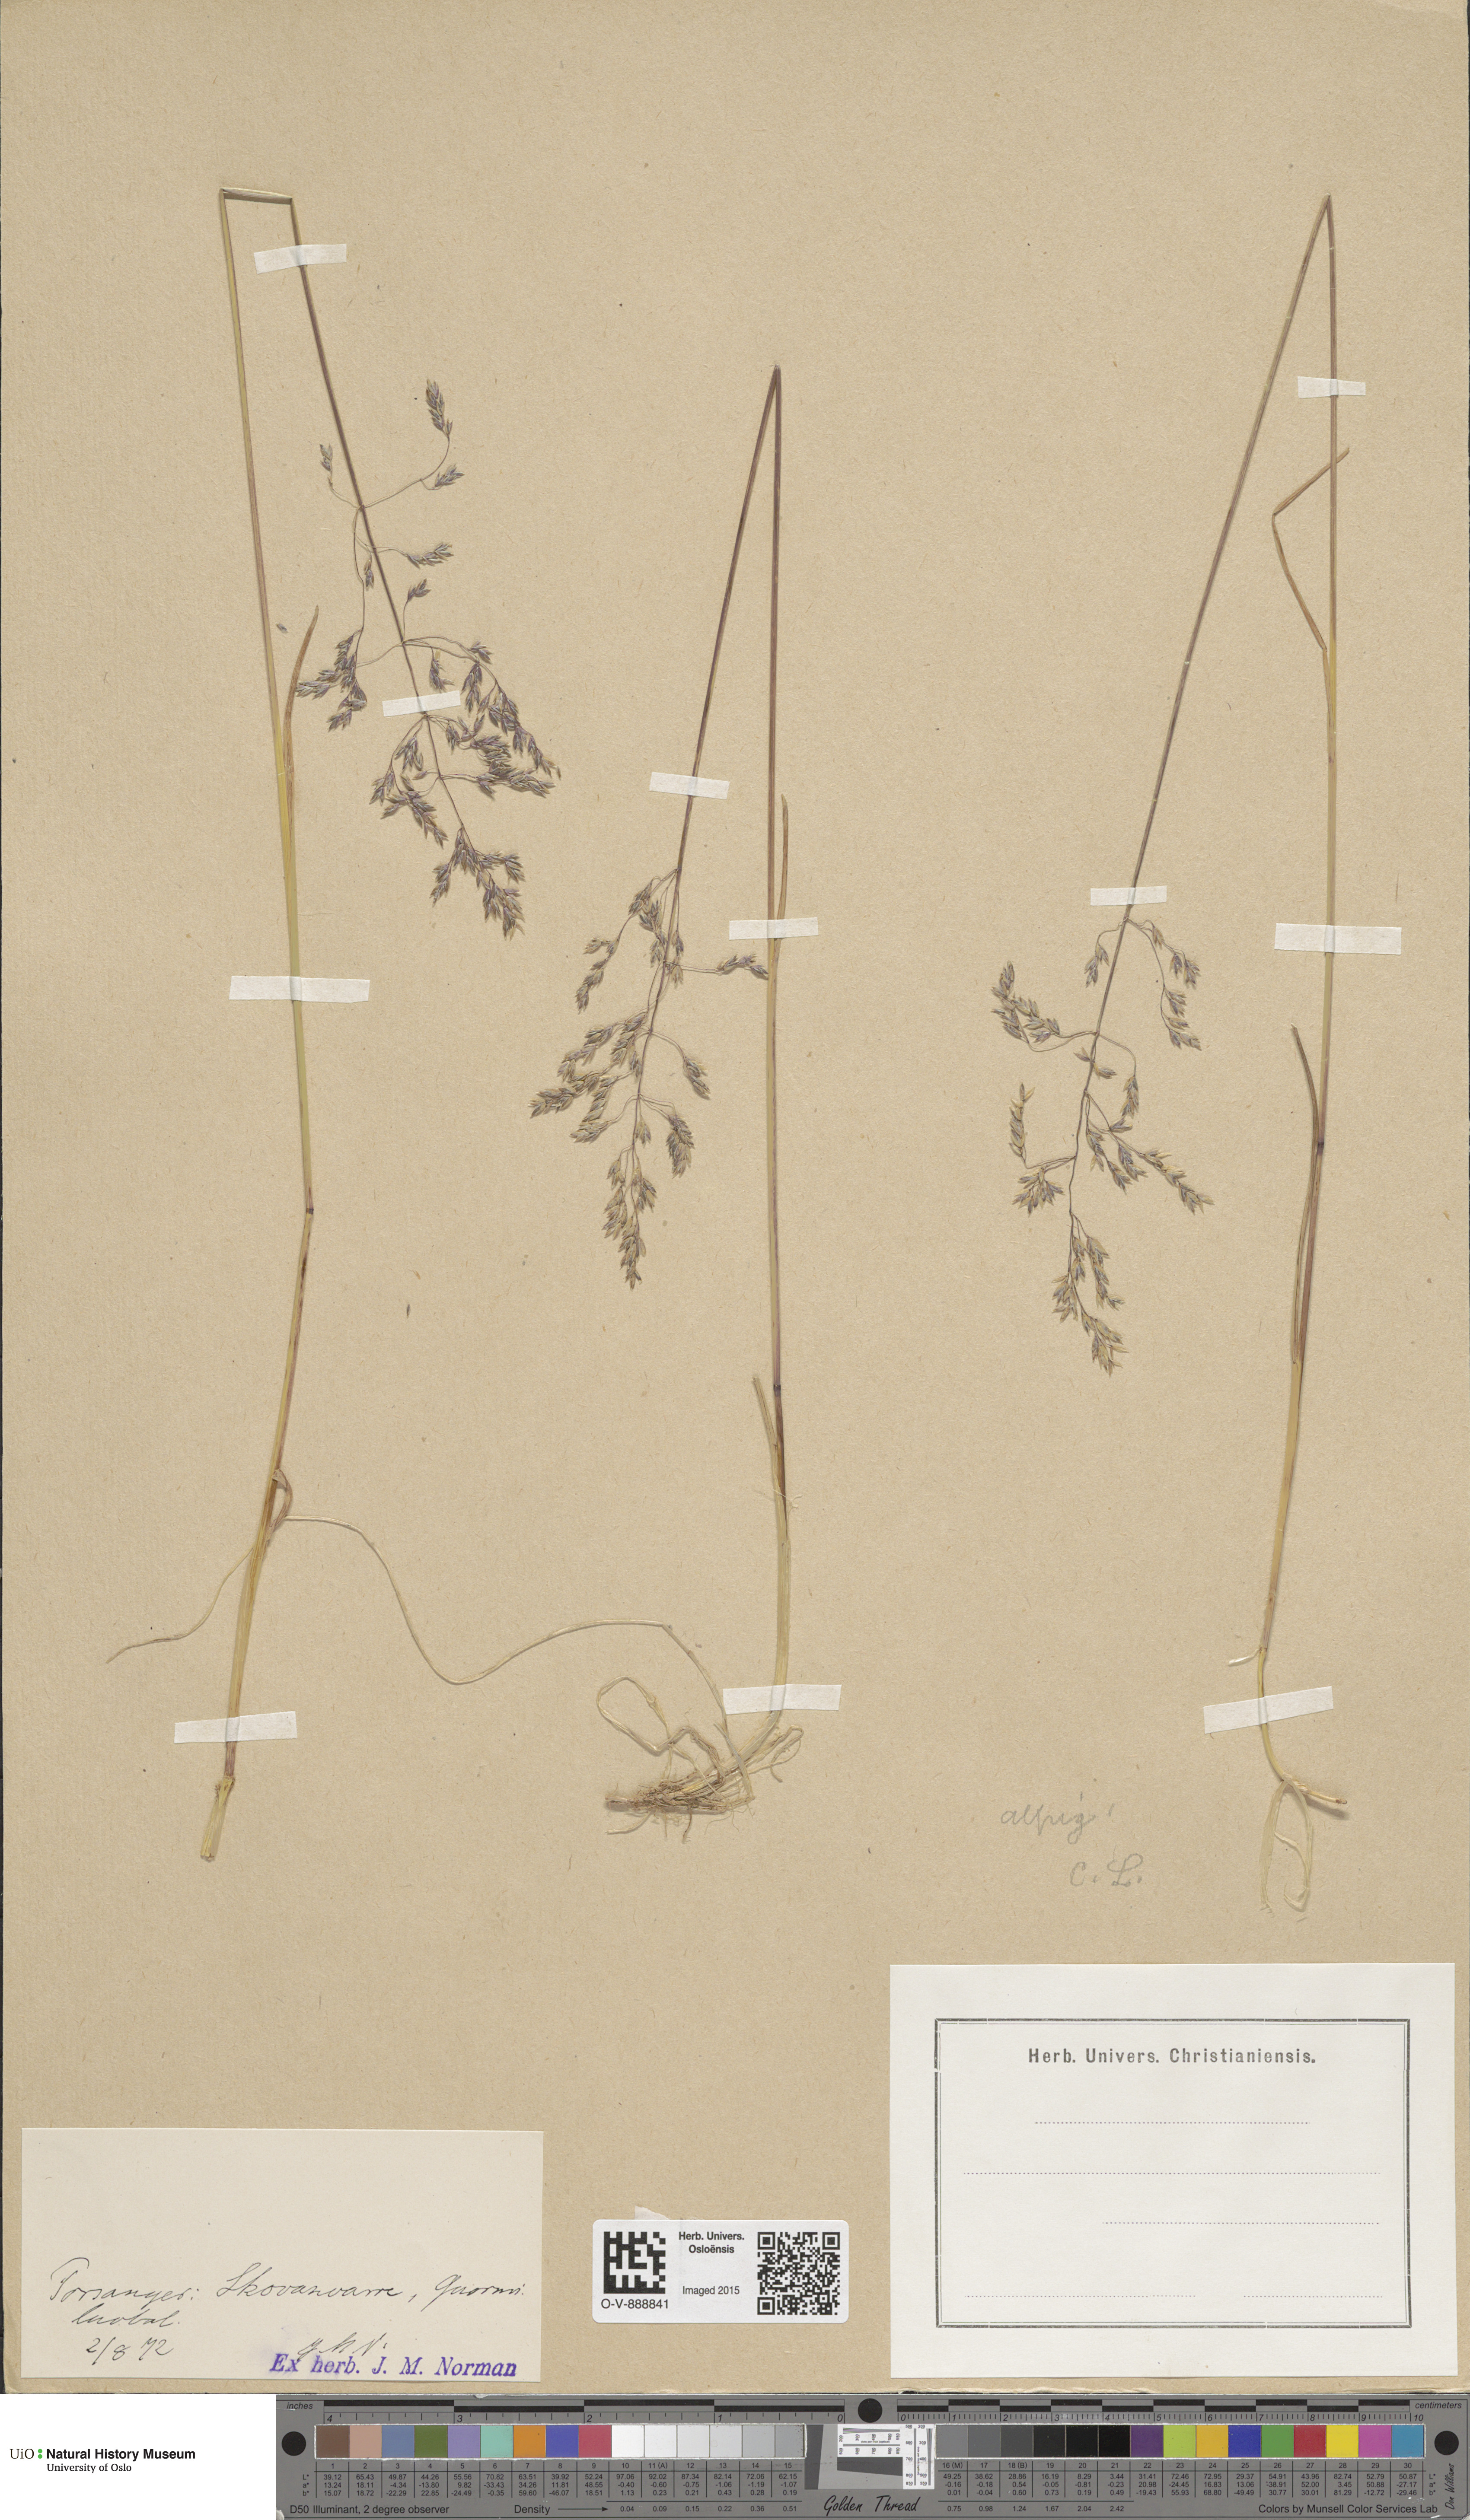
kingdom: Plantae
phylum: Tracheophyta
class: Liliopsida
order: Poales
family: Poaceae
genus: Poa
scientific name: Poa alpigena
